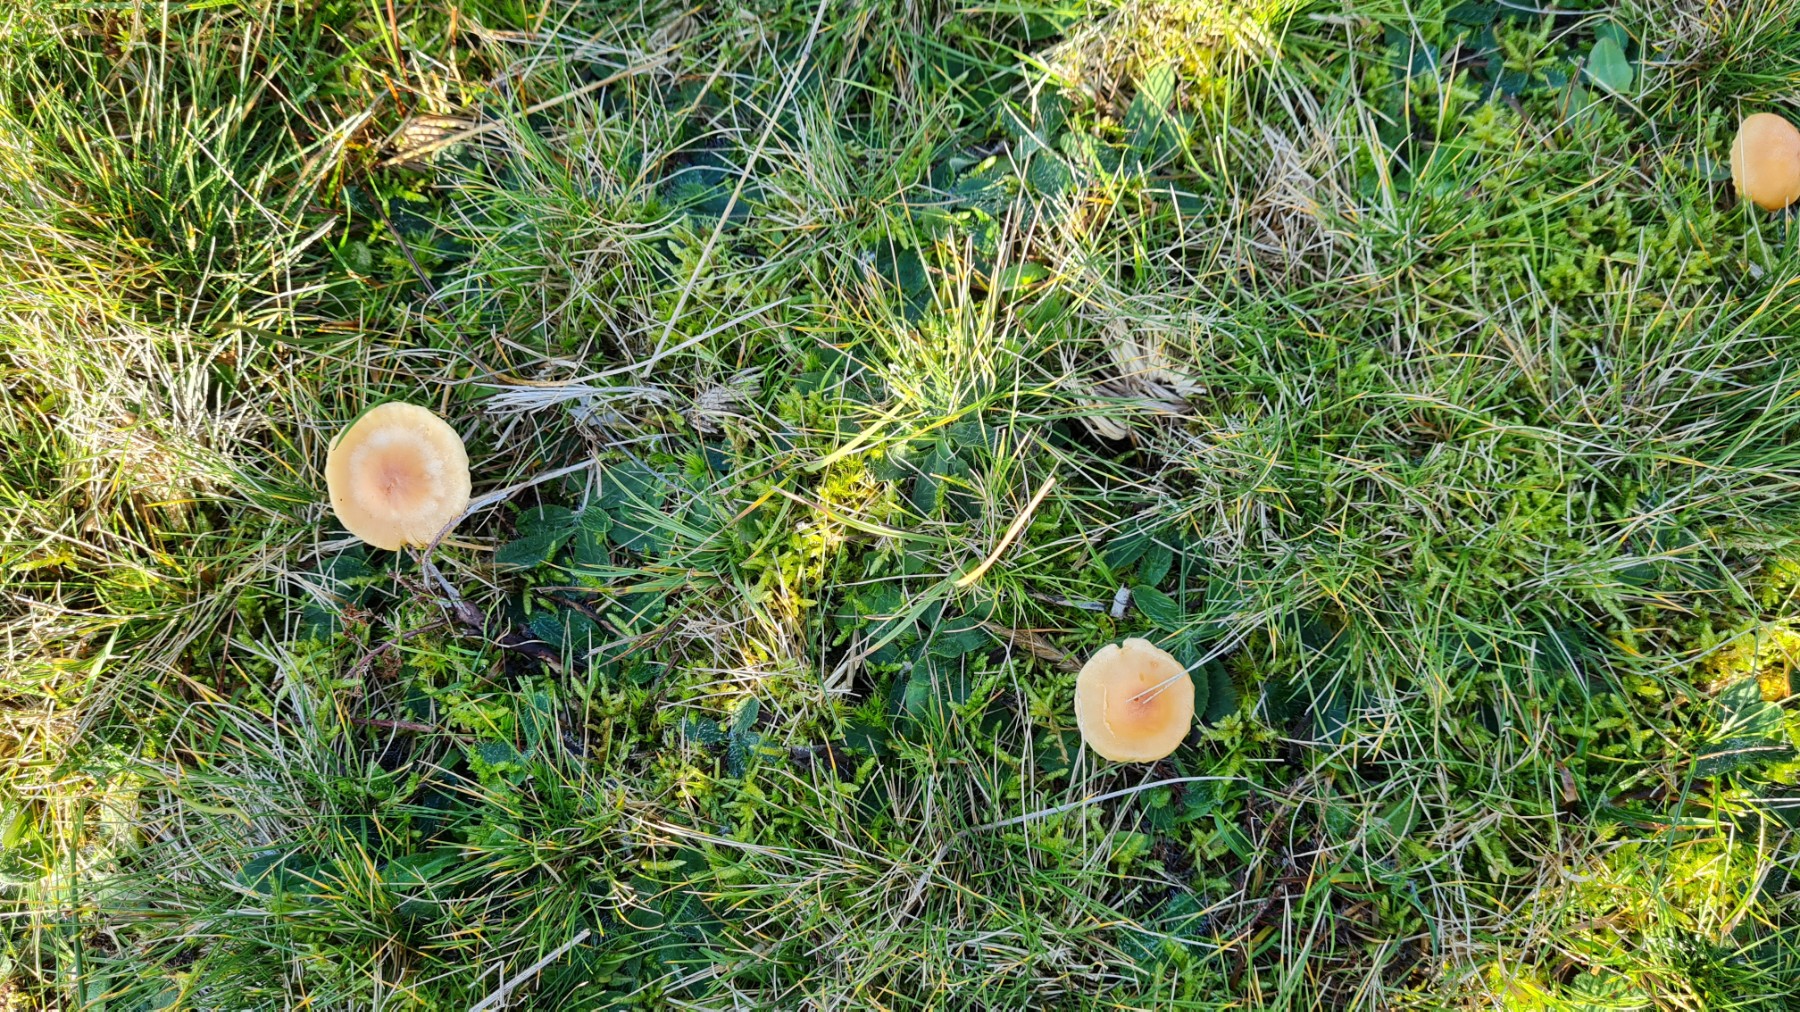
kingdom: Fungi
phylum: Basidiomycota
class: Agaricomycetes
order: Agaricales
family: Hygrophoraceae
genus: Cuphophyllus
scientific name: Cuphophyllus pratensis
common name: eng-vokshat
